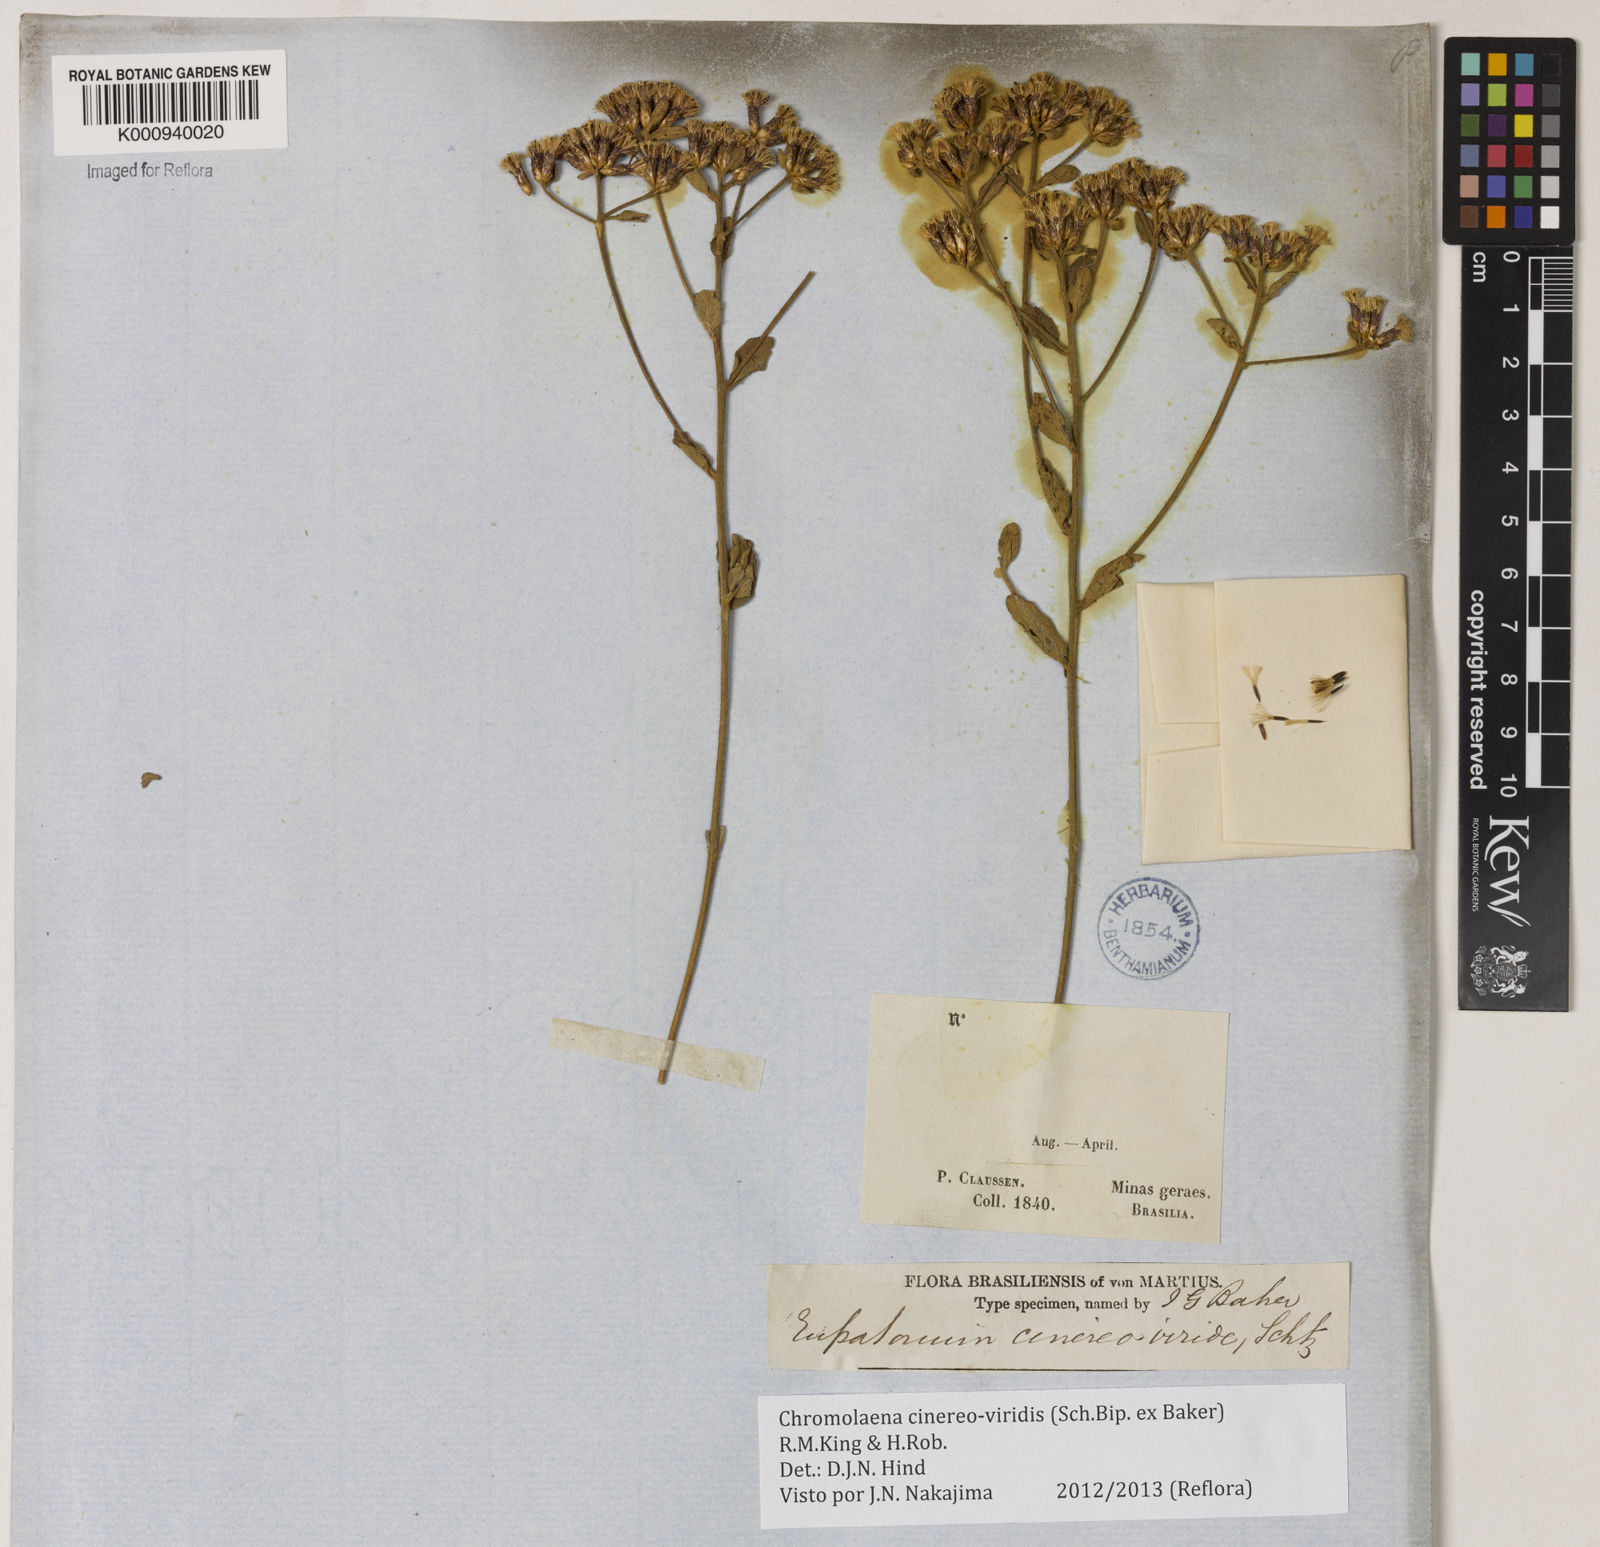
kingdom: Plantae
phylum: Tracheophyta
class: Magnoliopsida
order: Asterales
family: Asteraceae
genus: Chromolaena
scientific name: Chromolaena cinereoviridis
